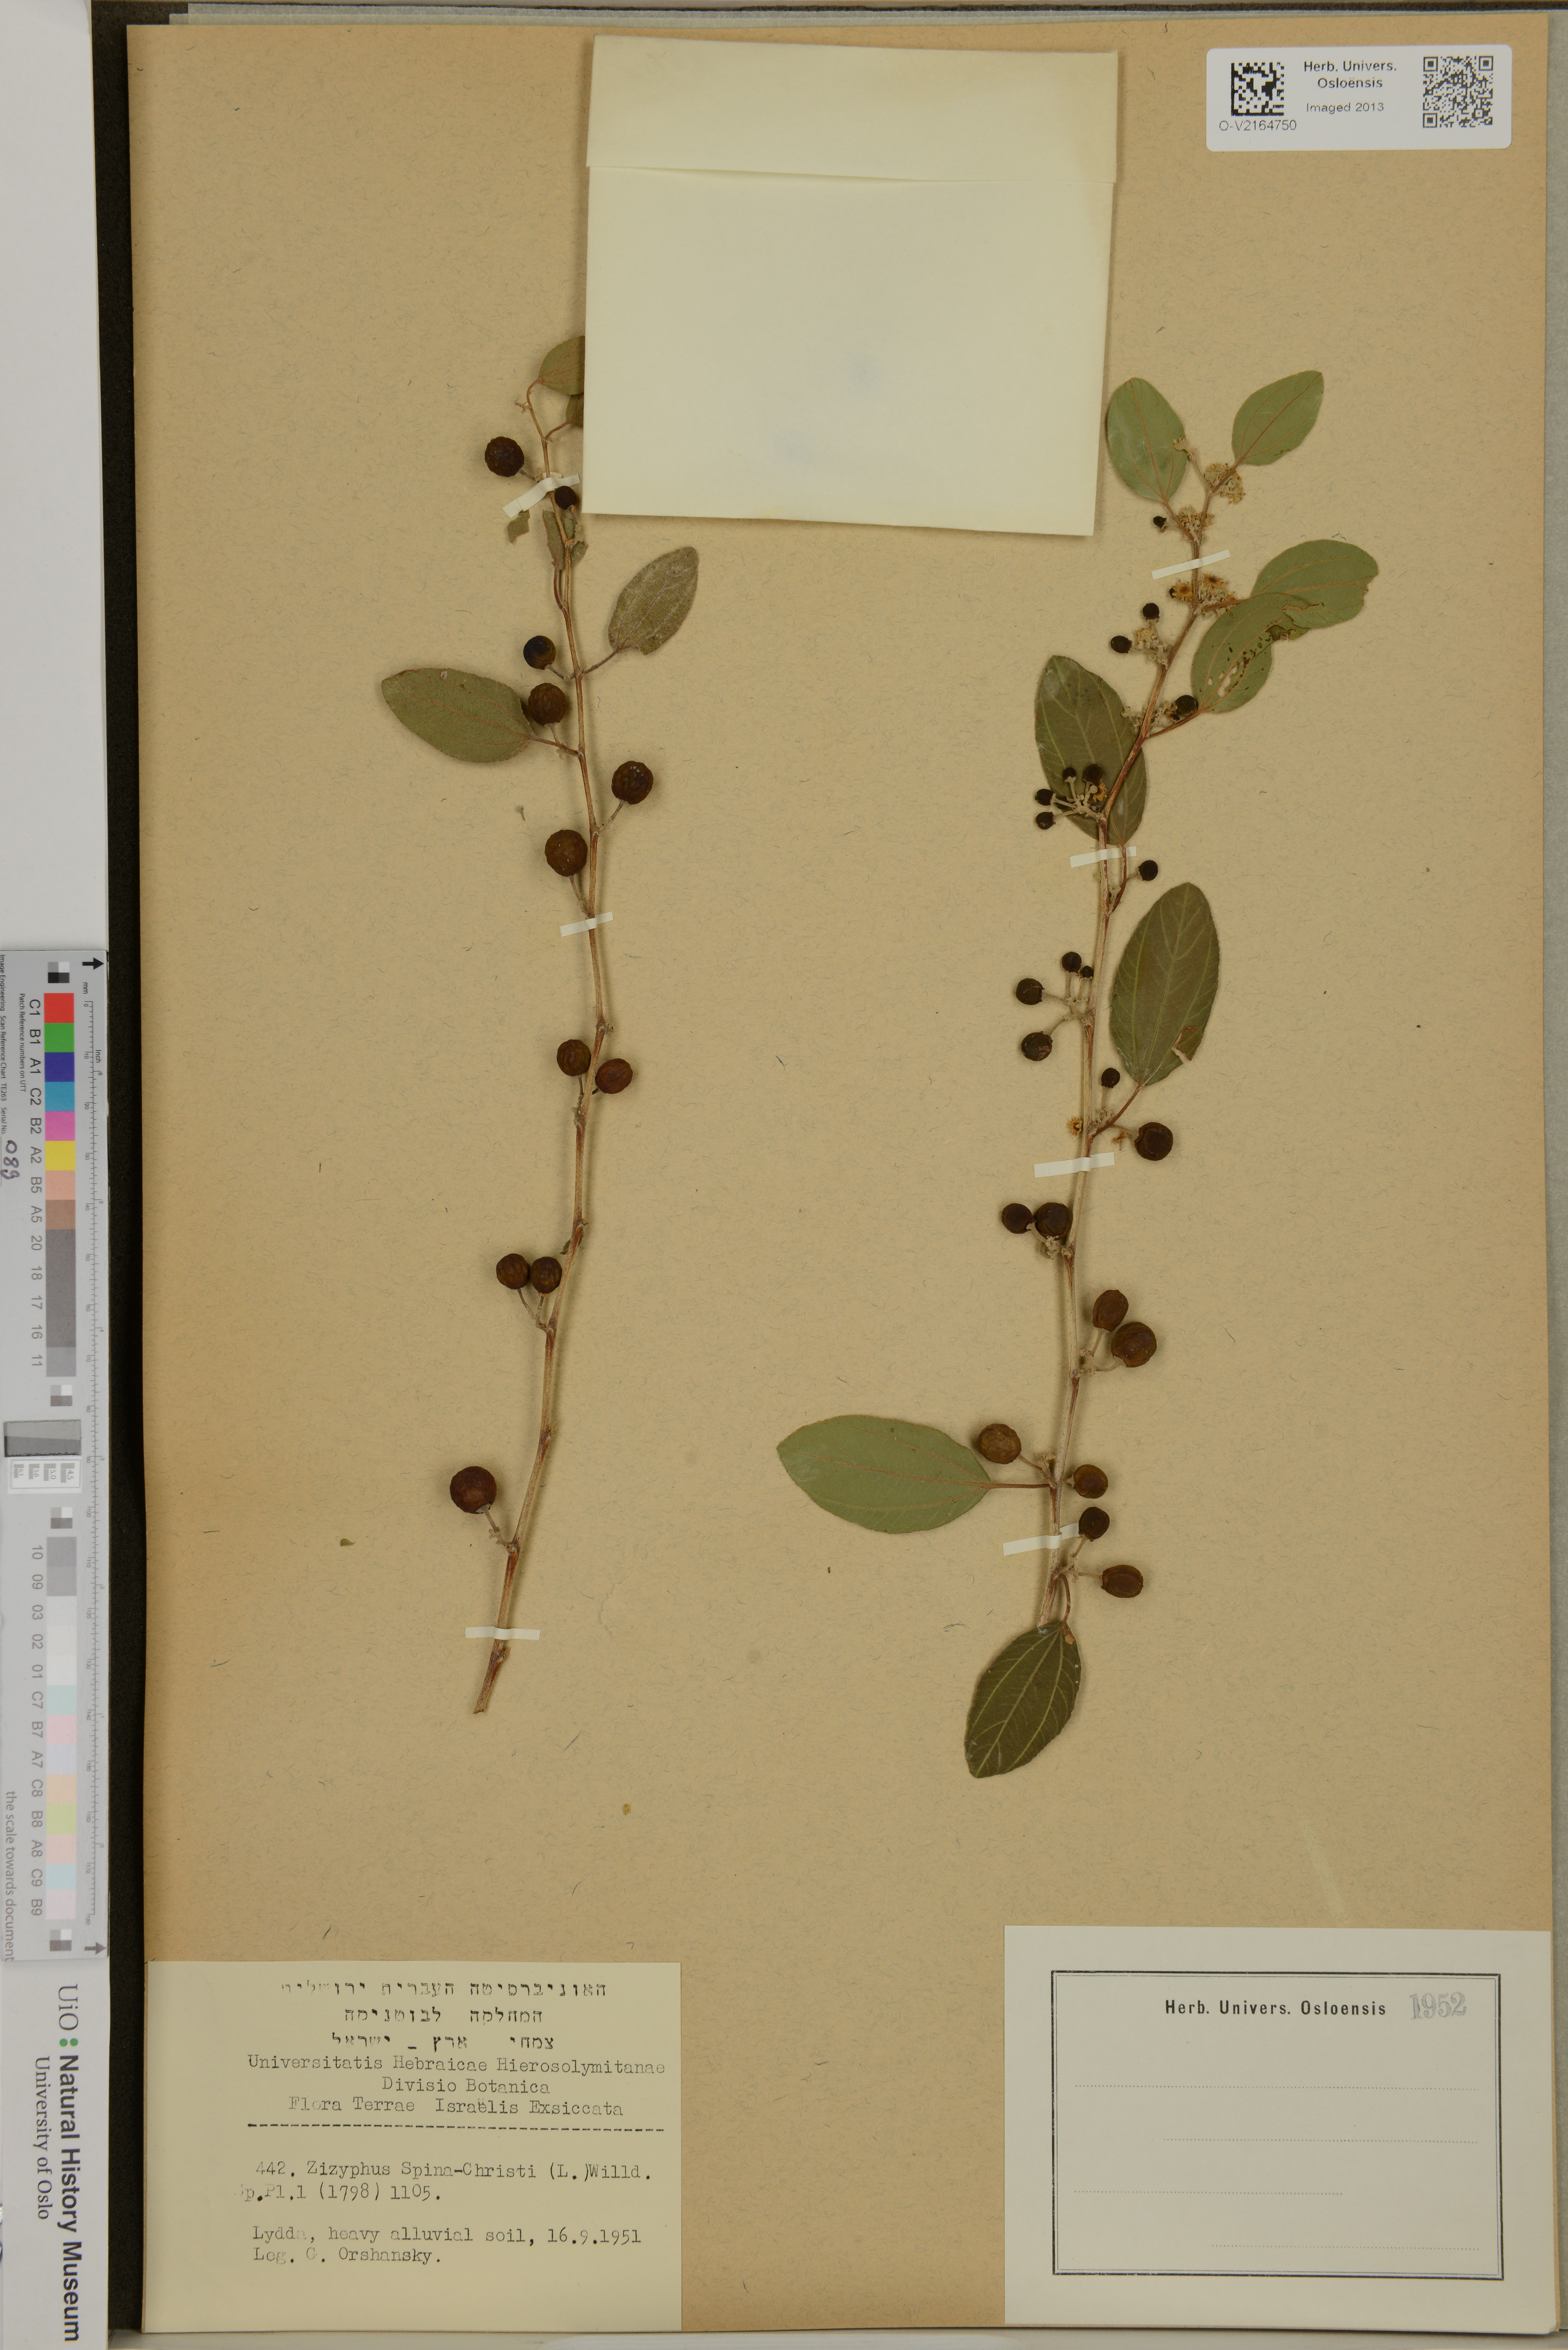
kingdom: Plantae
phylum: Tracheophyta
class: Magnoliopsida
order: Rosales
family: Rhamnaceae
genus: Ziziphus
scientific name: Ziziphus spina-christi
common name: Syrian christ-thorn
